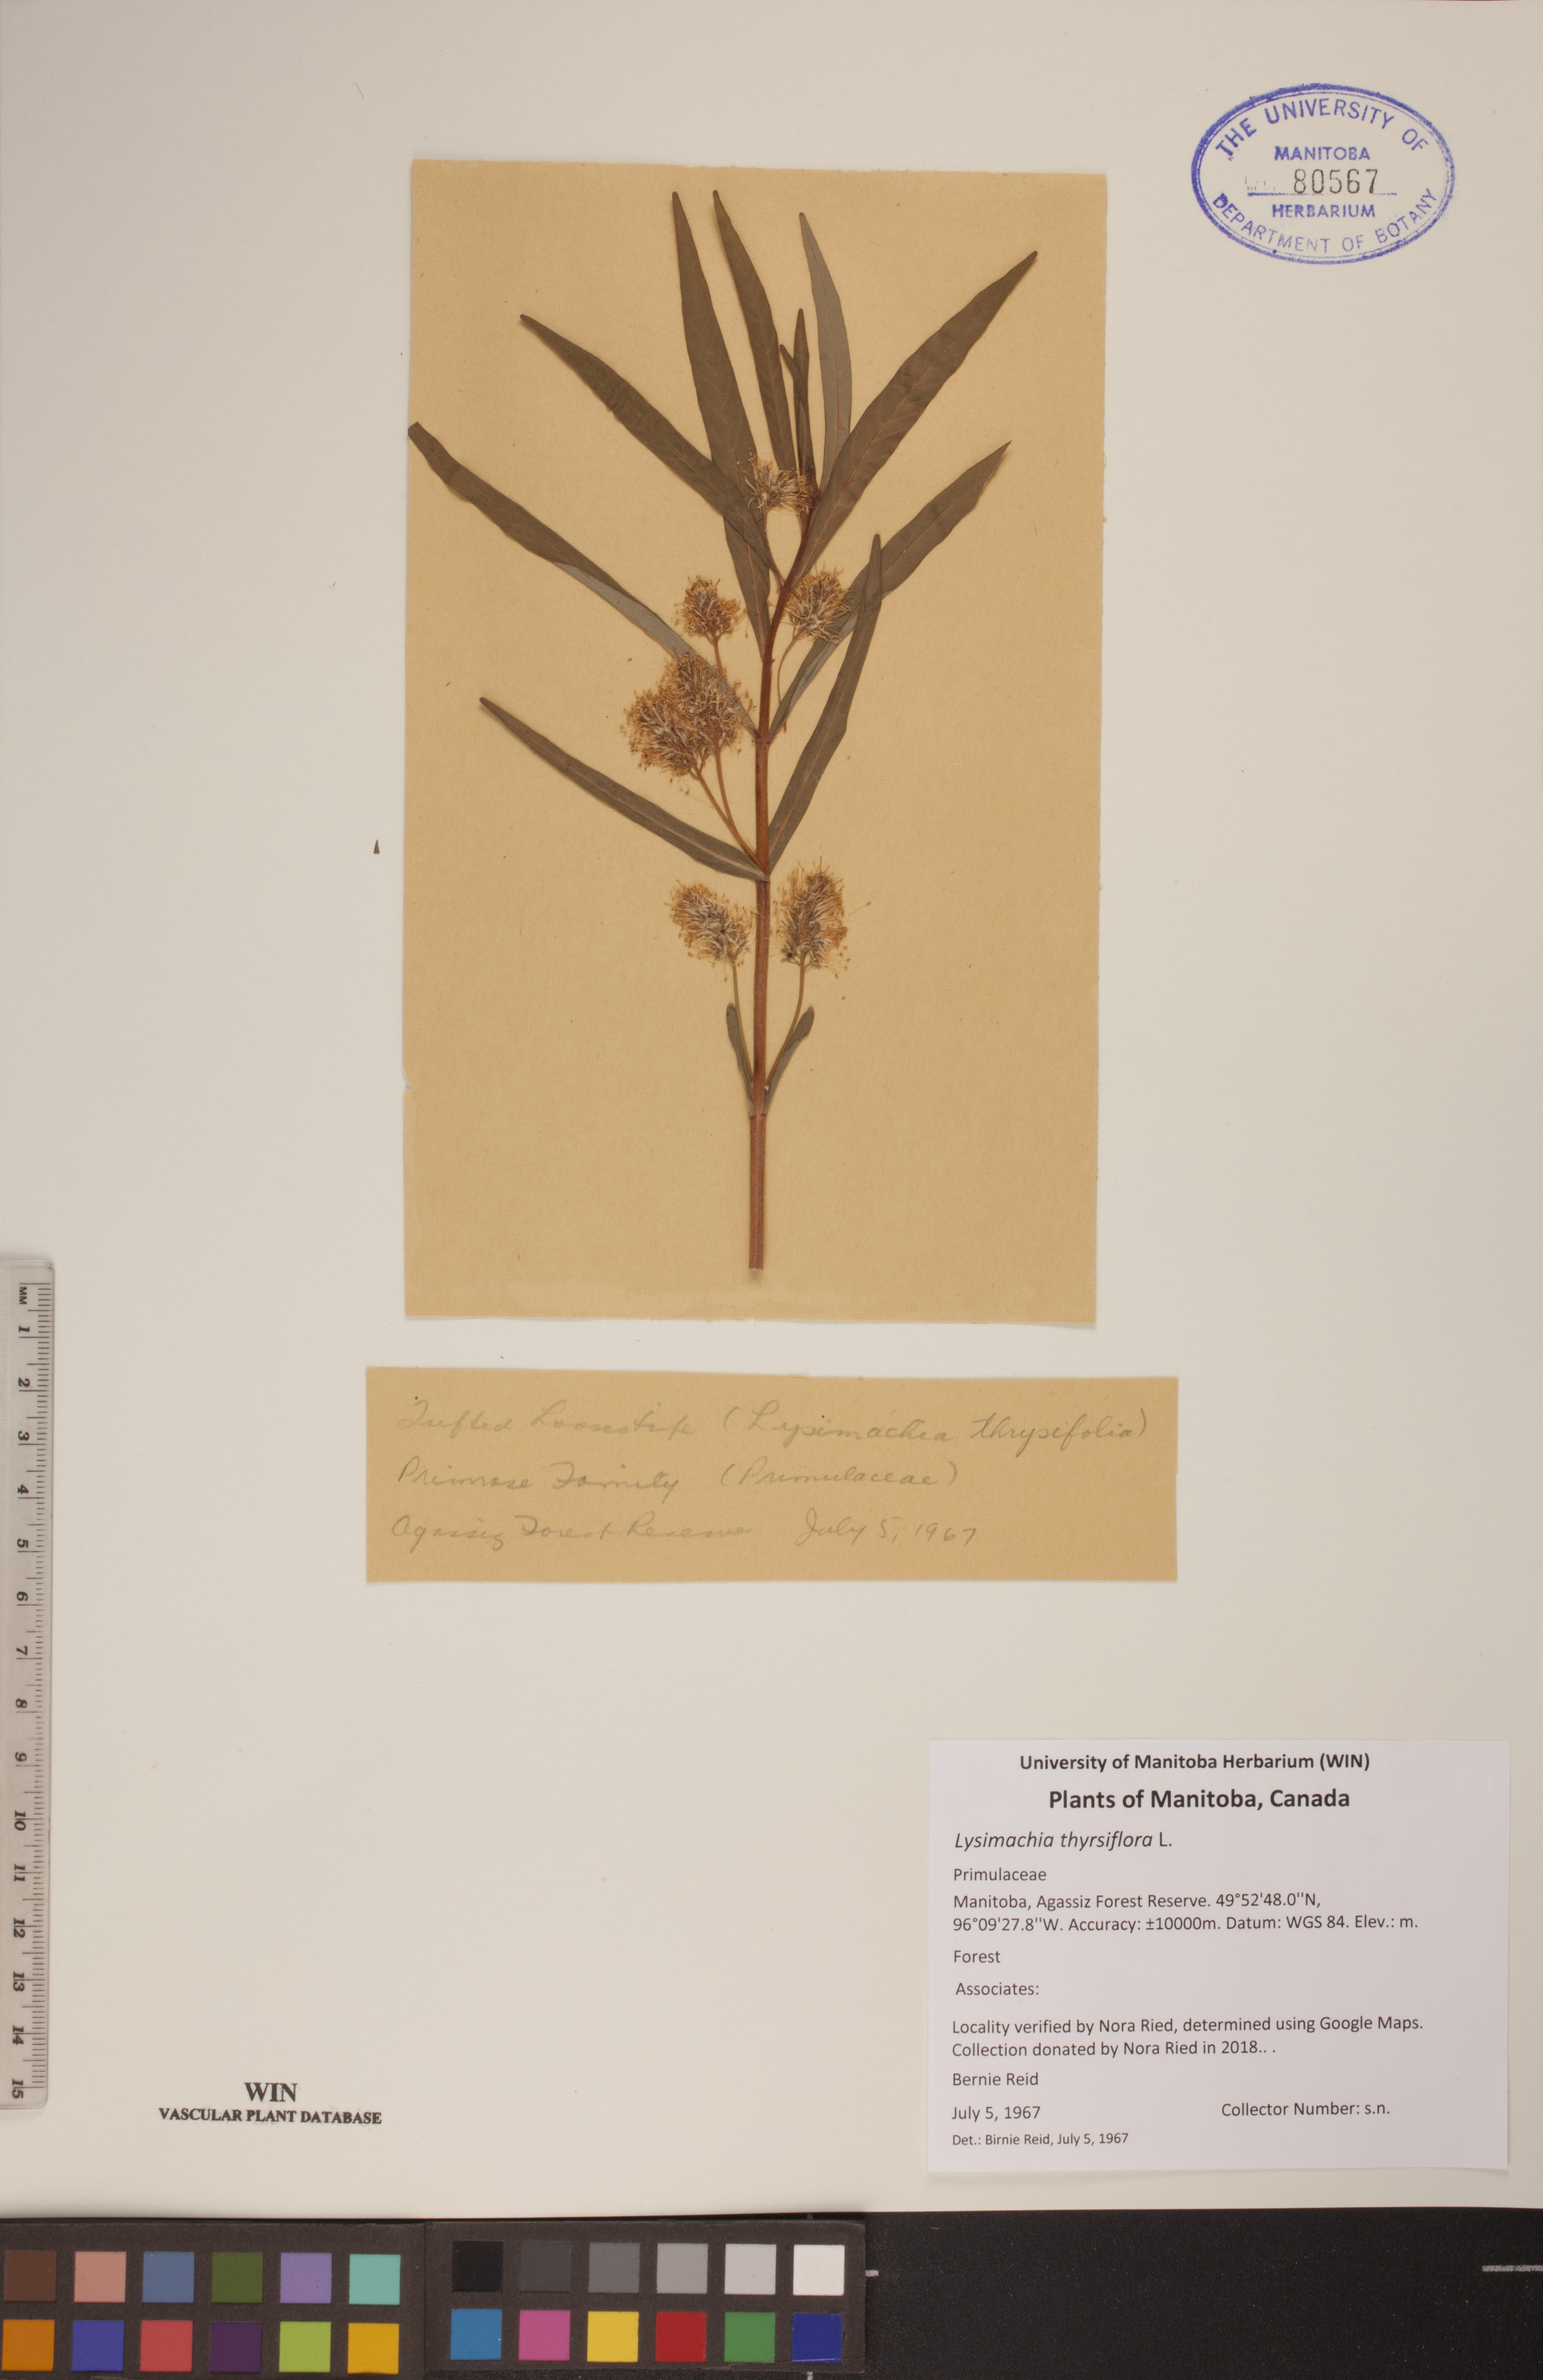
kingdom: Plantae
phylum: Tracheophyta
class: Magnoliopsida
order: Ericales
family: Primulaceae
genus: Lysimachia
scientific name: Lysimachia thyrsiflora
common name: Tufted loosestrife
